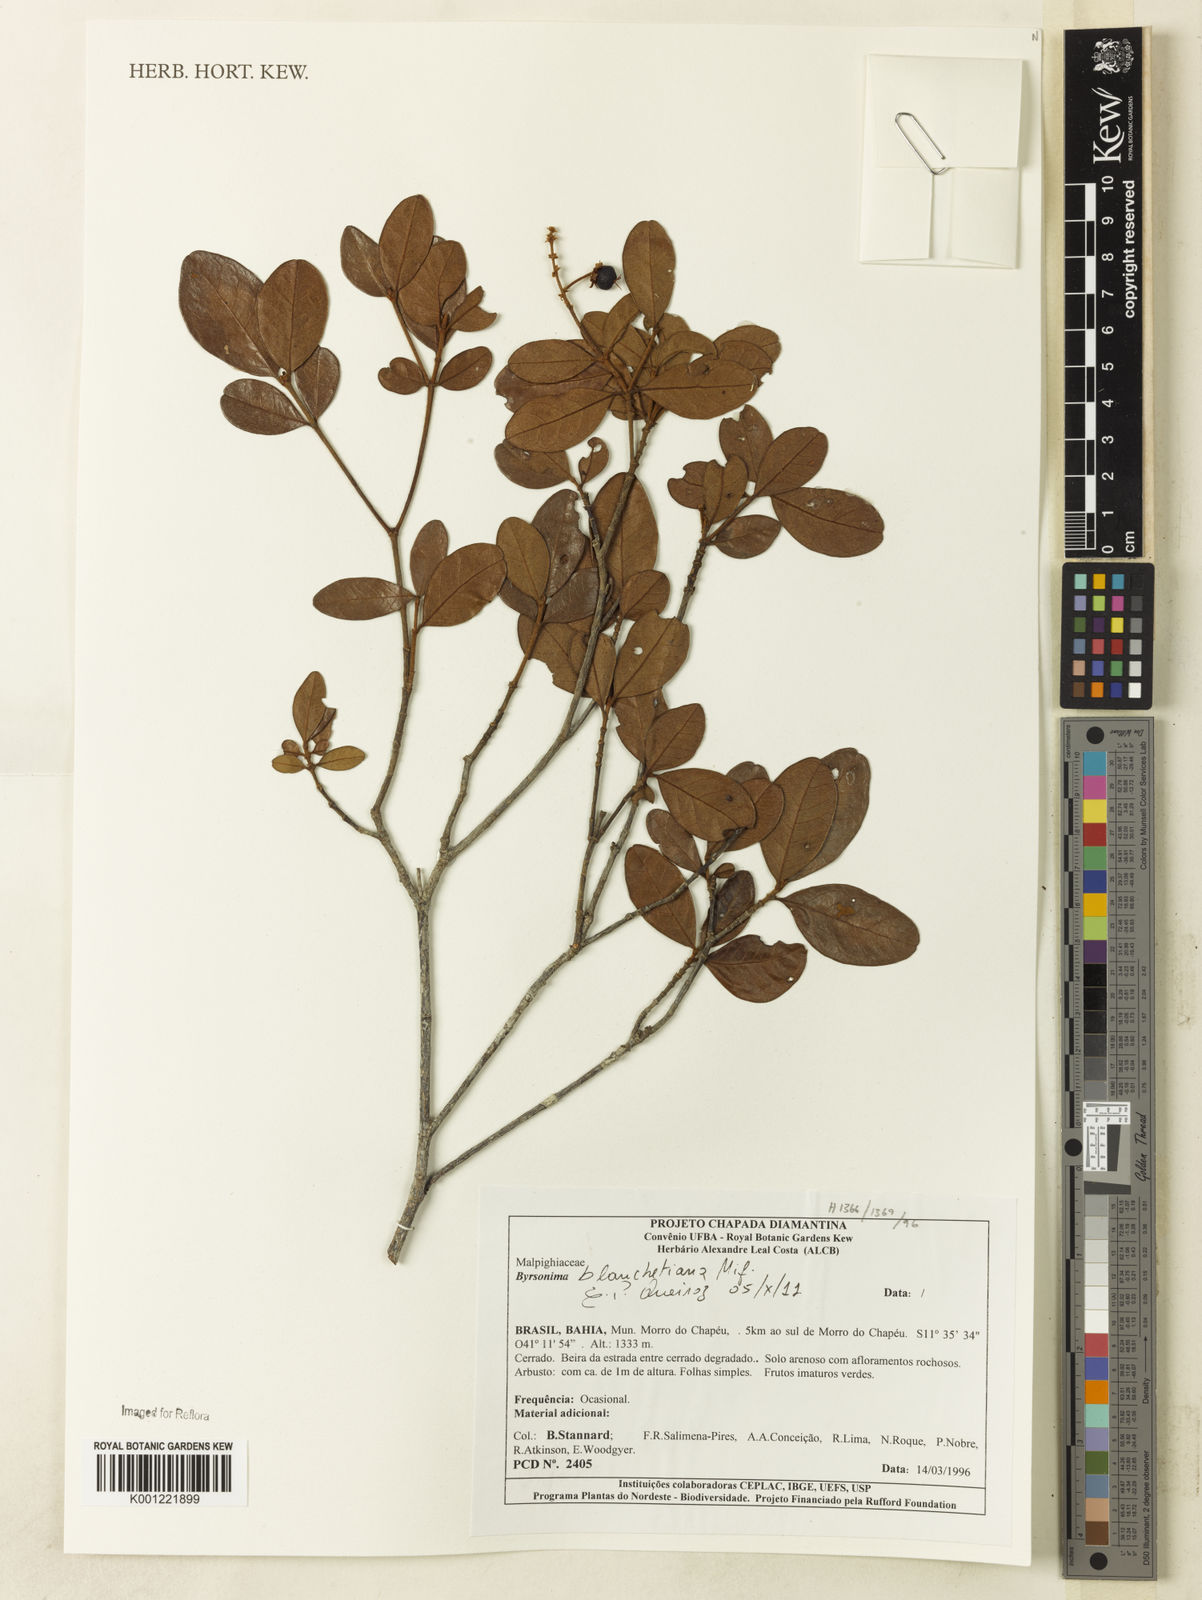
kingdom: Plantae
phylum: Tracheophyta
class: Magnoliopsida
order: Malpighiales
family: Malpighiaceae
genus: Byrsonima
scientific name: Byrsonima bicorniculata
